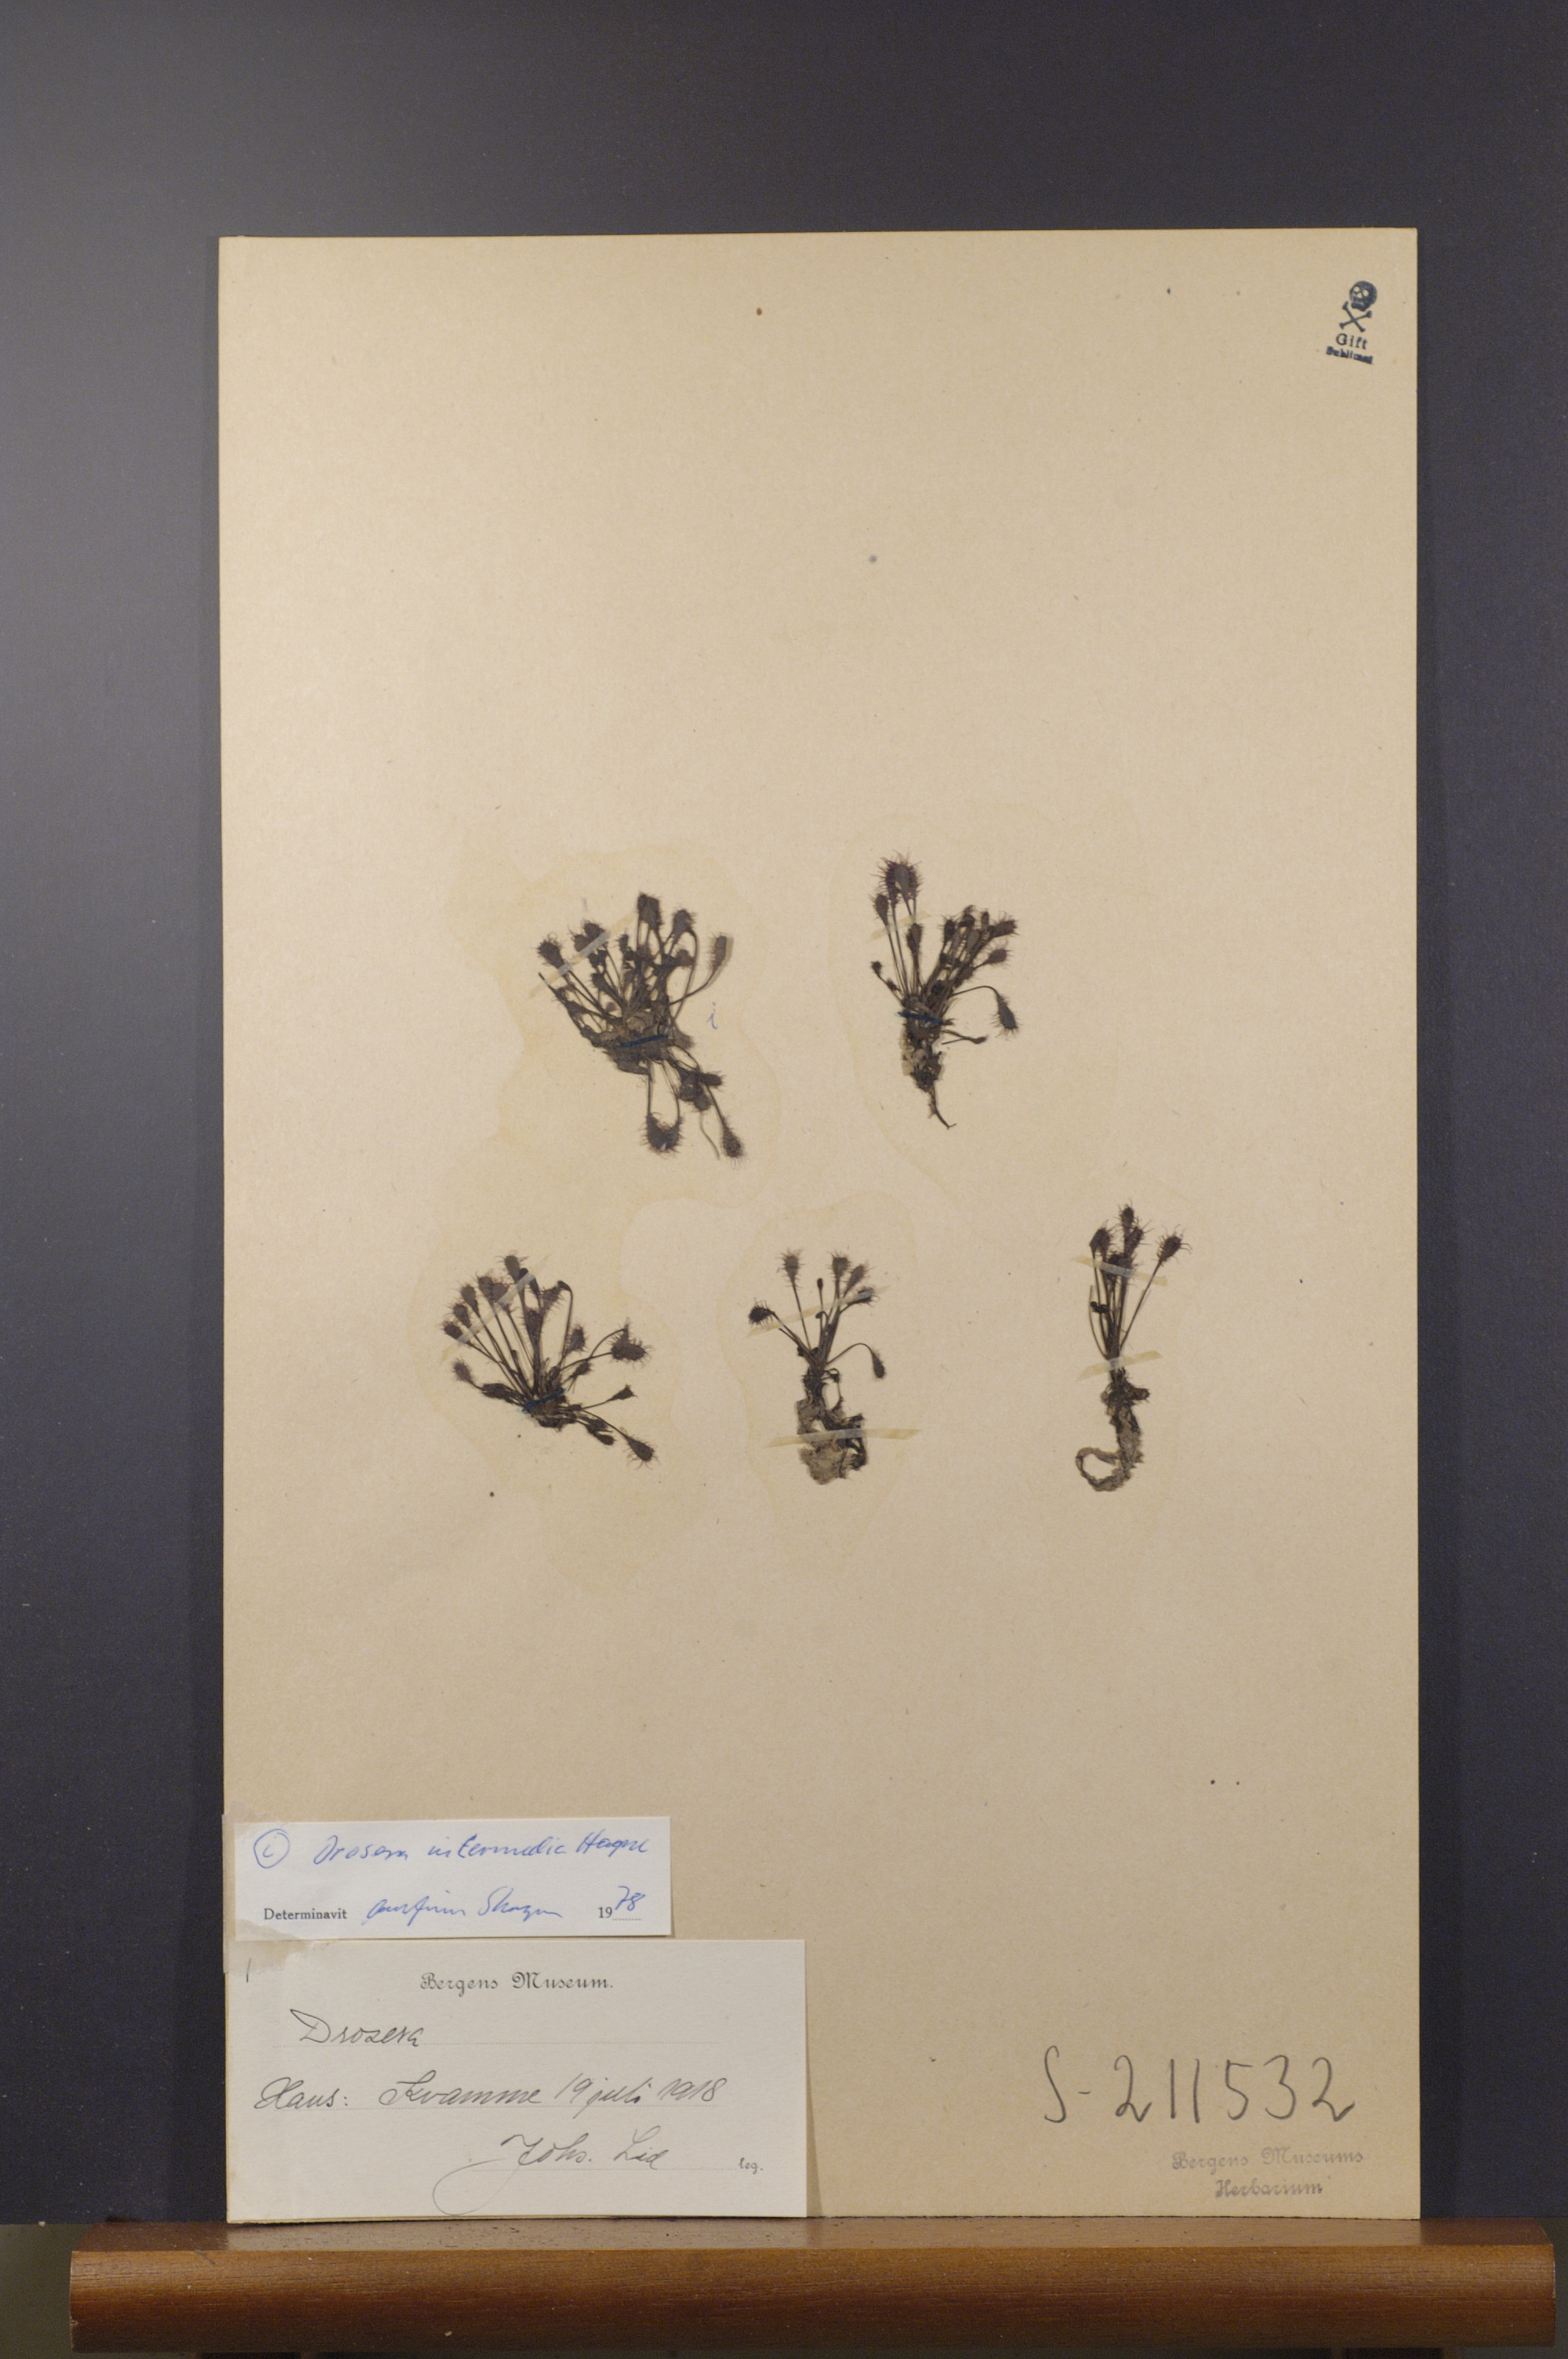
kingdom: Plantae
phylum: Tracheophyta
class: Magnoliopsida
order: Caryophyllales
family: Droseraceae
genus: Drosera
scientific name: Drosera intermedia
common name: Oblong-leaved sundew
